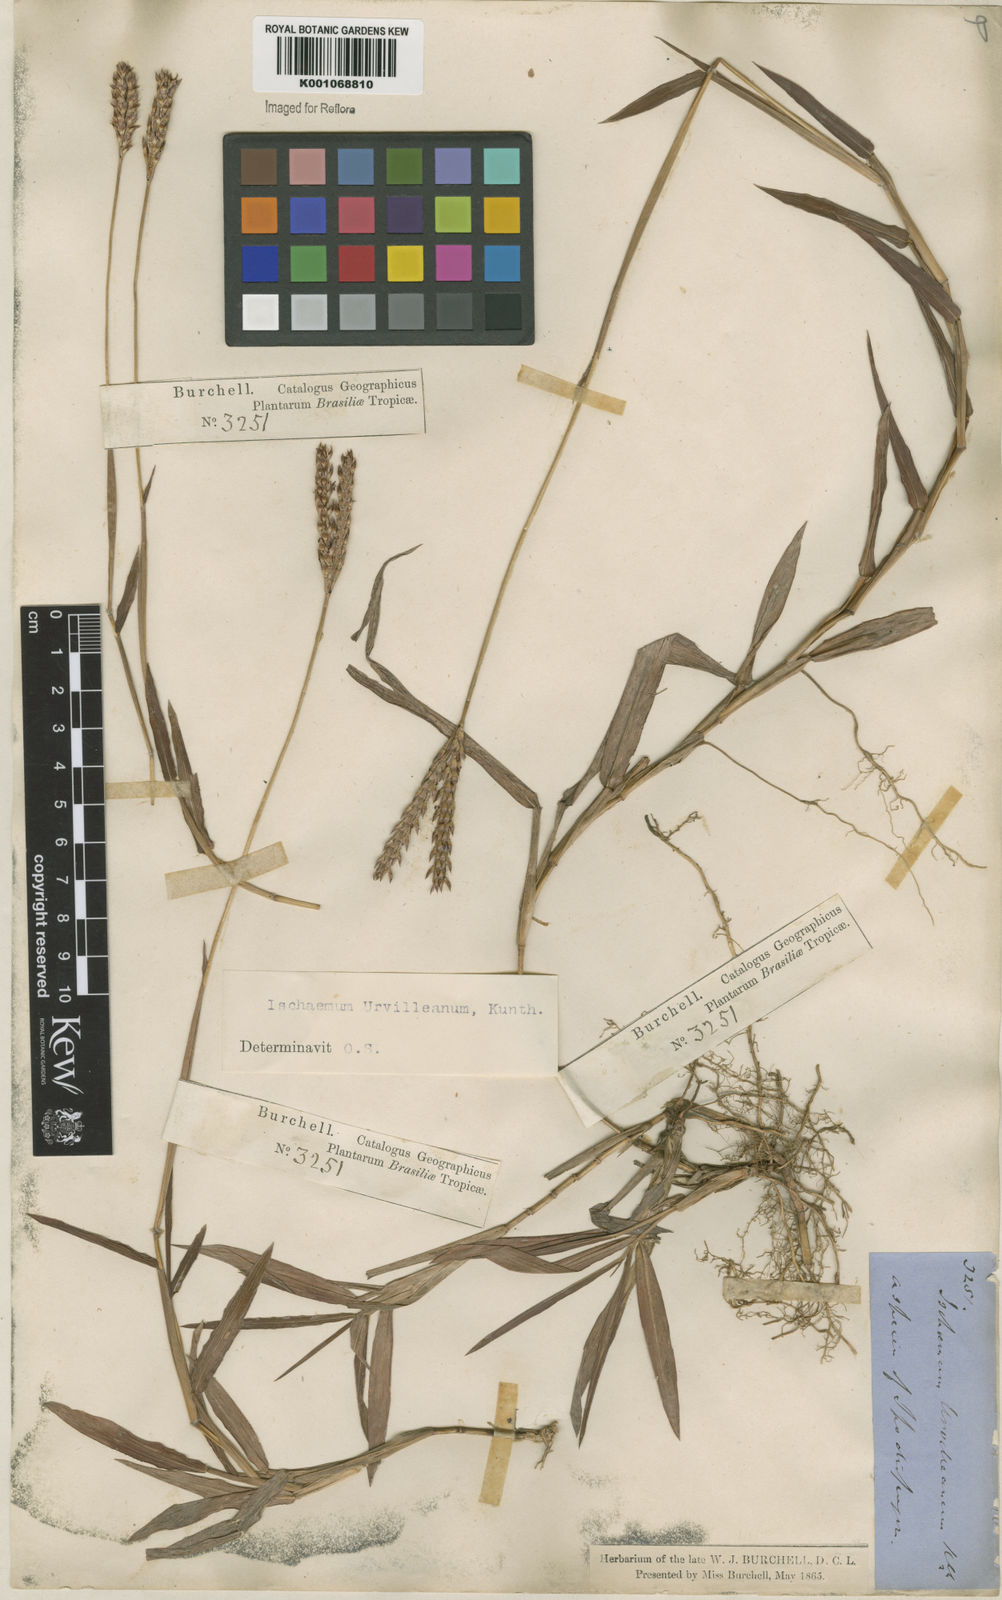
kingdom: Plantae
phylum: Tracheophyta
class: Liliopsida
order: Poales
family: Poaceae
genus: Ischaemum
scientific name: Ischaemum latifolium
